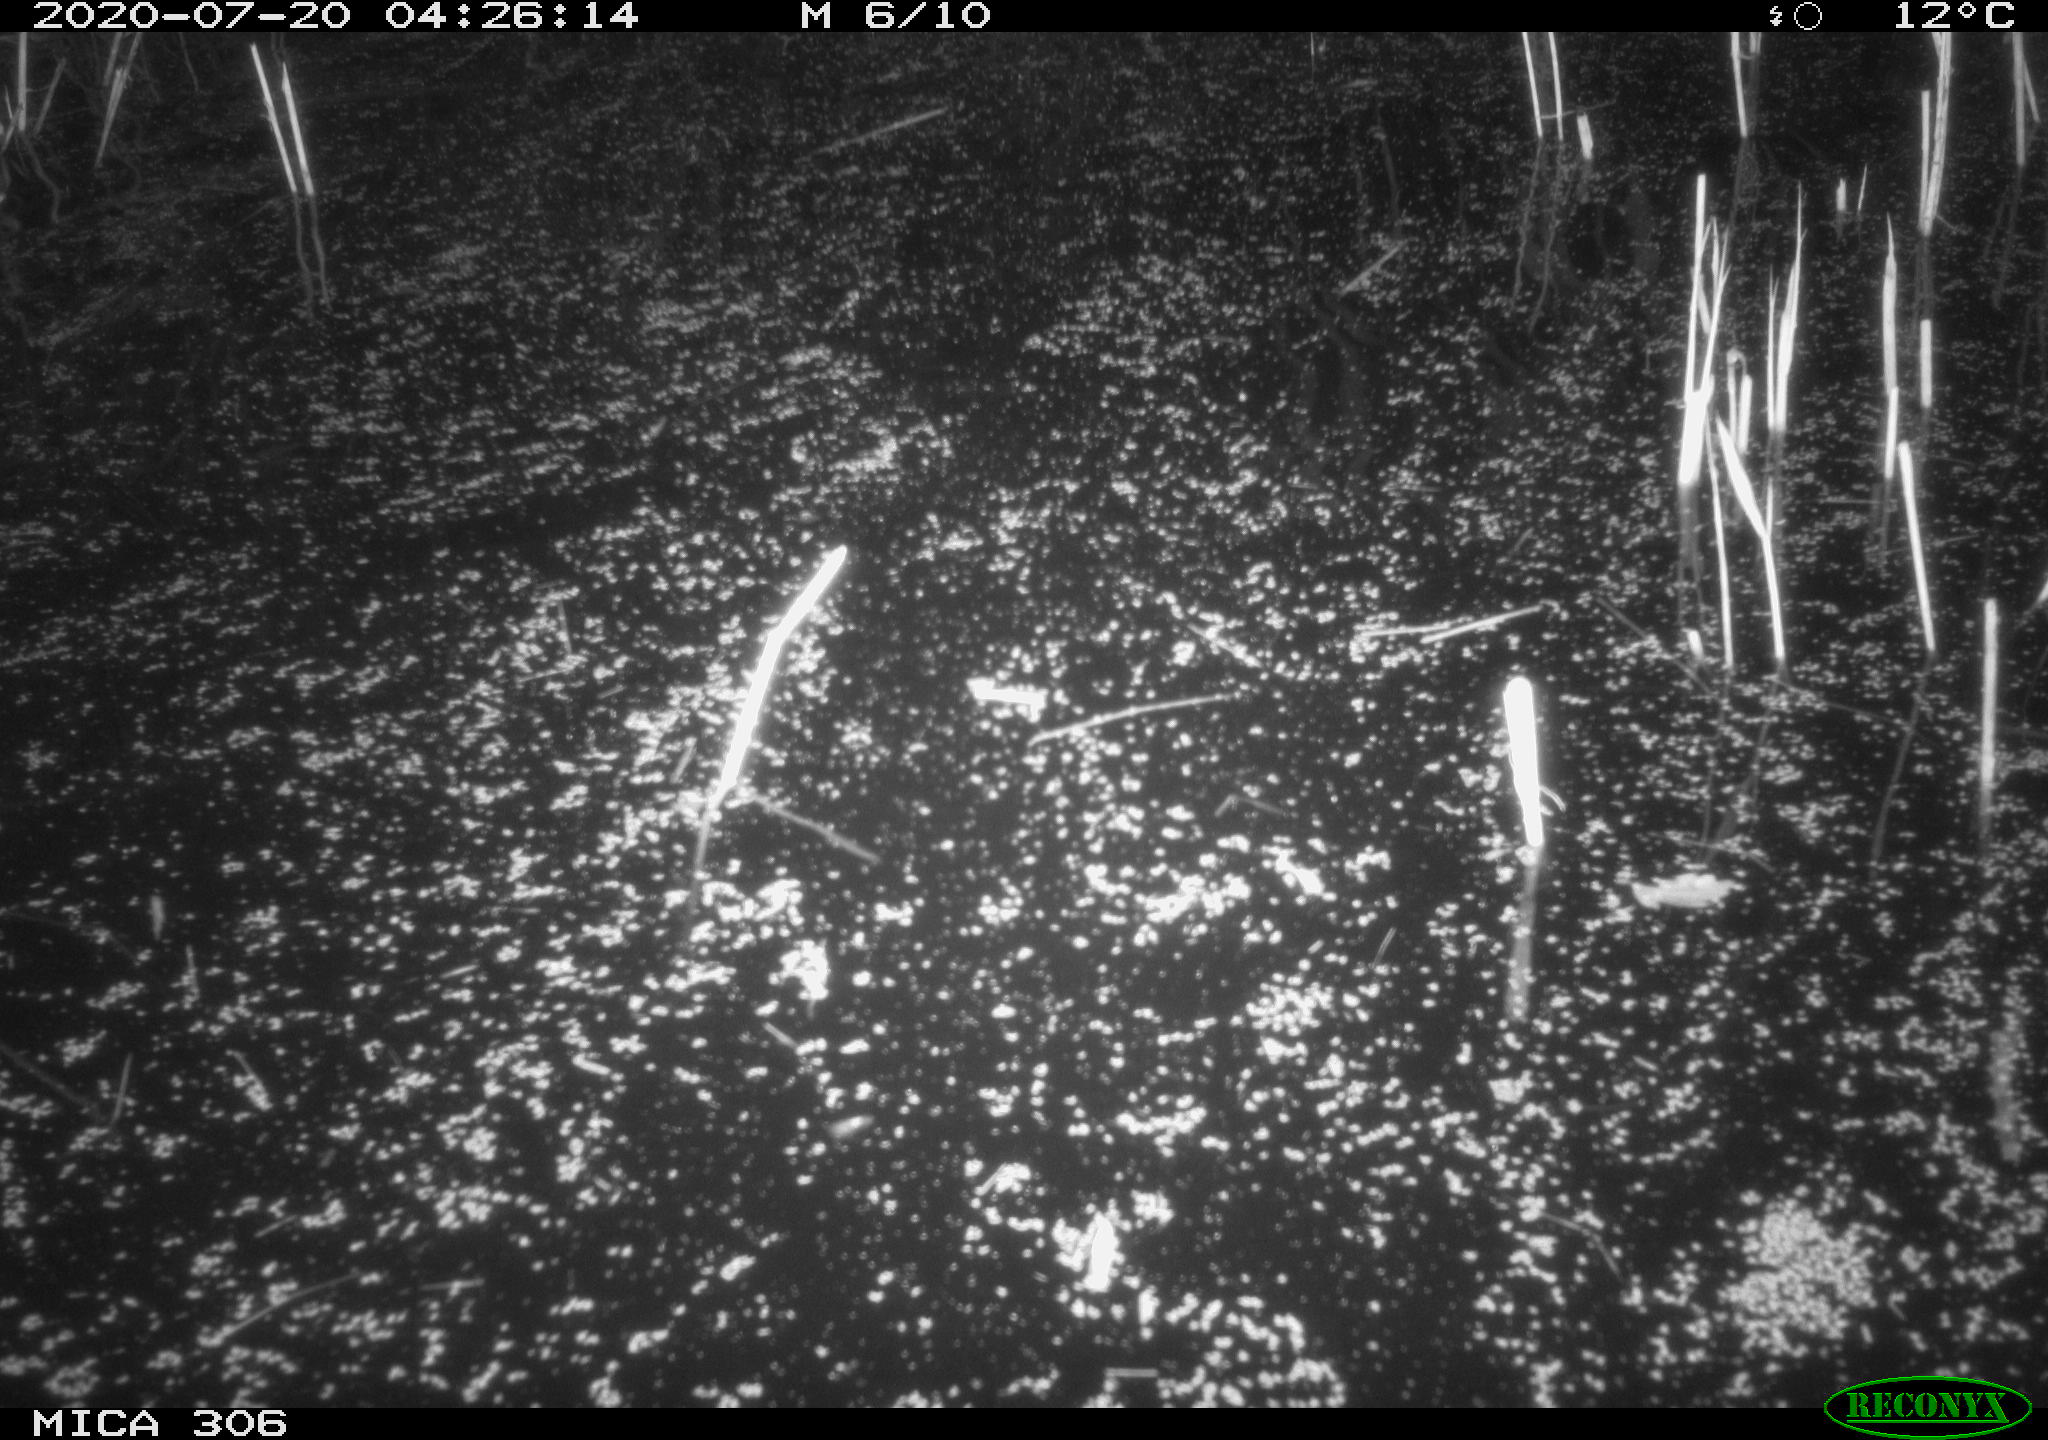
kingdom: Animalia
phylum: Chordata
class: Mammalia
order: Rodentia
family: Cricetidae
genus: Ondatra
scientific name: Ondatra zibethicus
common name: Muskrat
